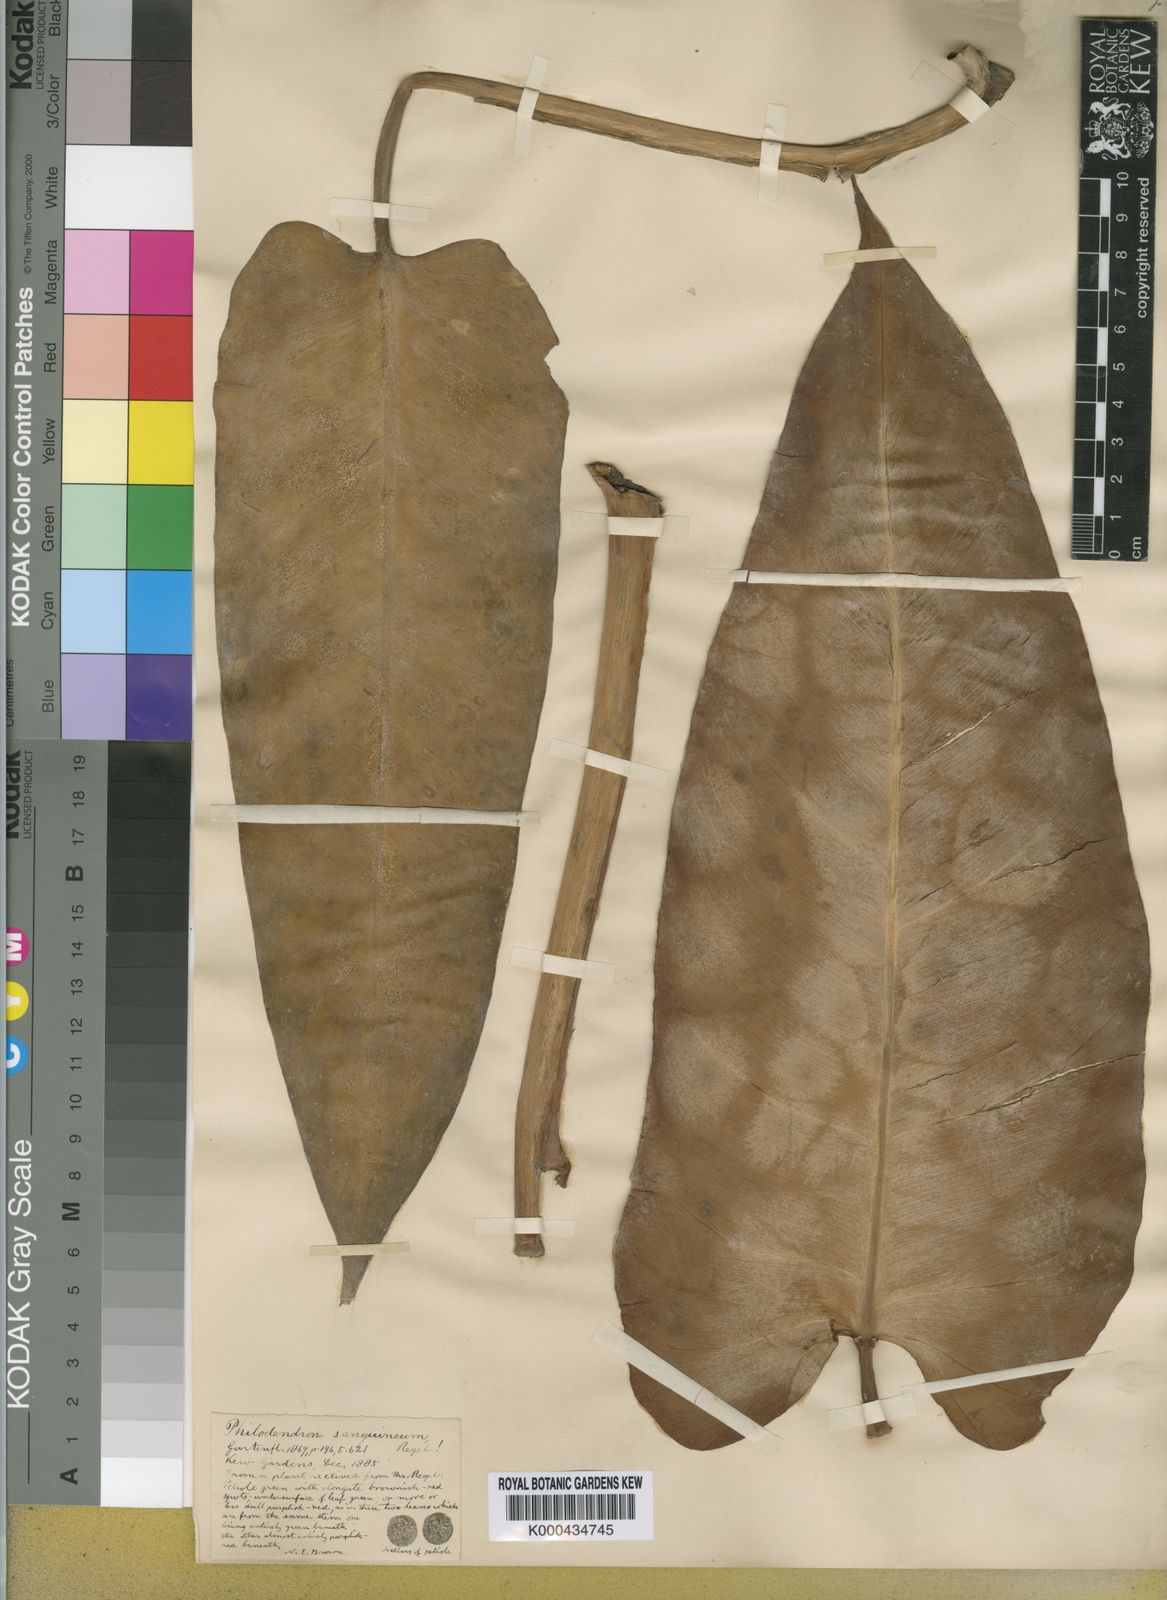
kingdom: Plantae
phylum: Tracheophyta
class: Liliopsida
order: Alismatales
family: Araceae
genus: Philodendron
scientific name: Philodendron sagittifolium
